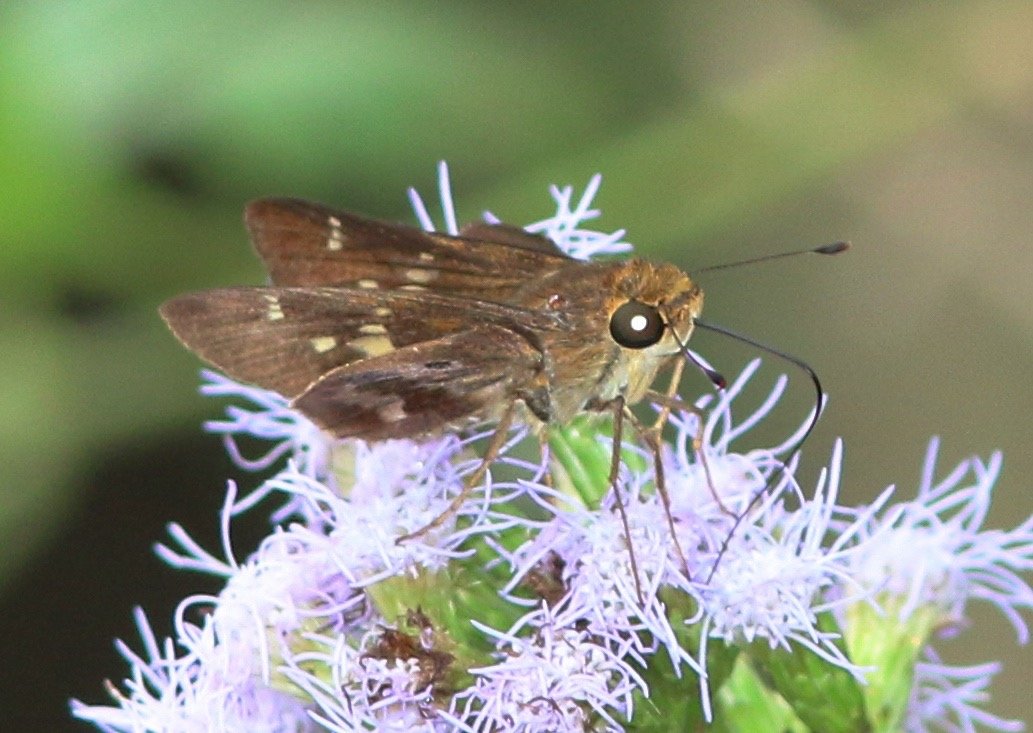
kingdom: Animalia
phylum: Arthropoda
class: Insecta
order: Lepidoptera
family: Hesperiidae
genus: Nyctelius
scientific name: Nyctelius nyctelius
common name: Violet-banded Skipper
